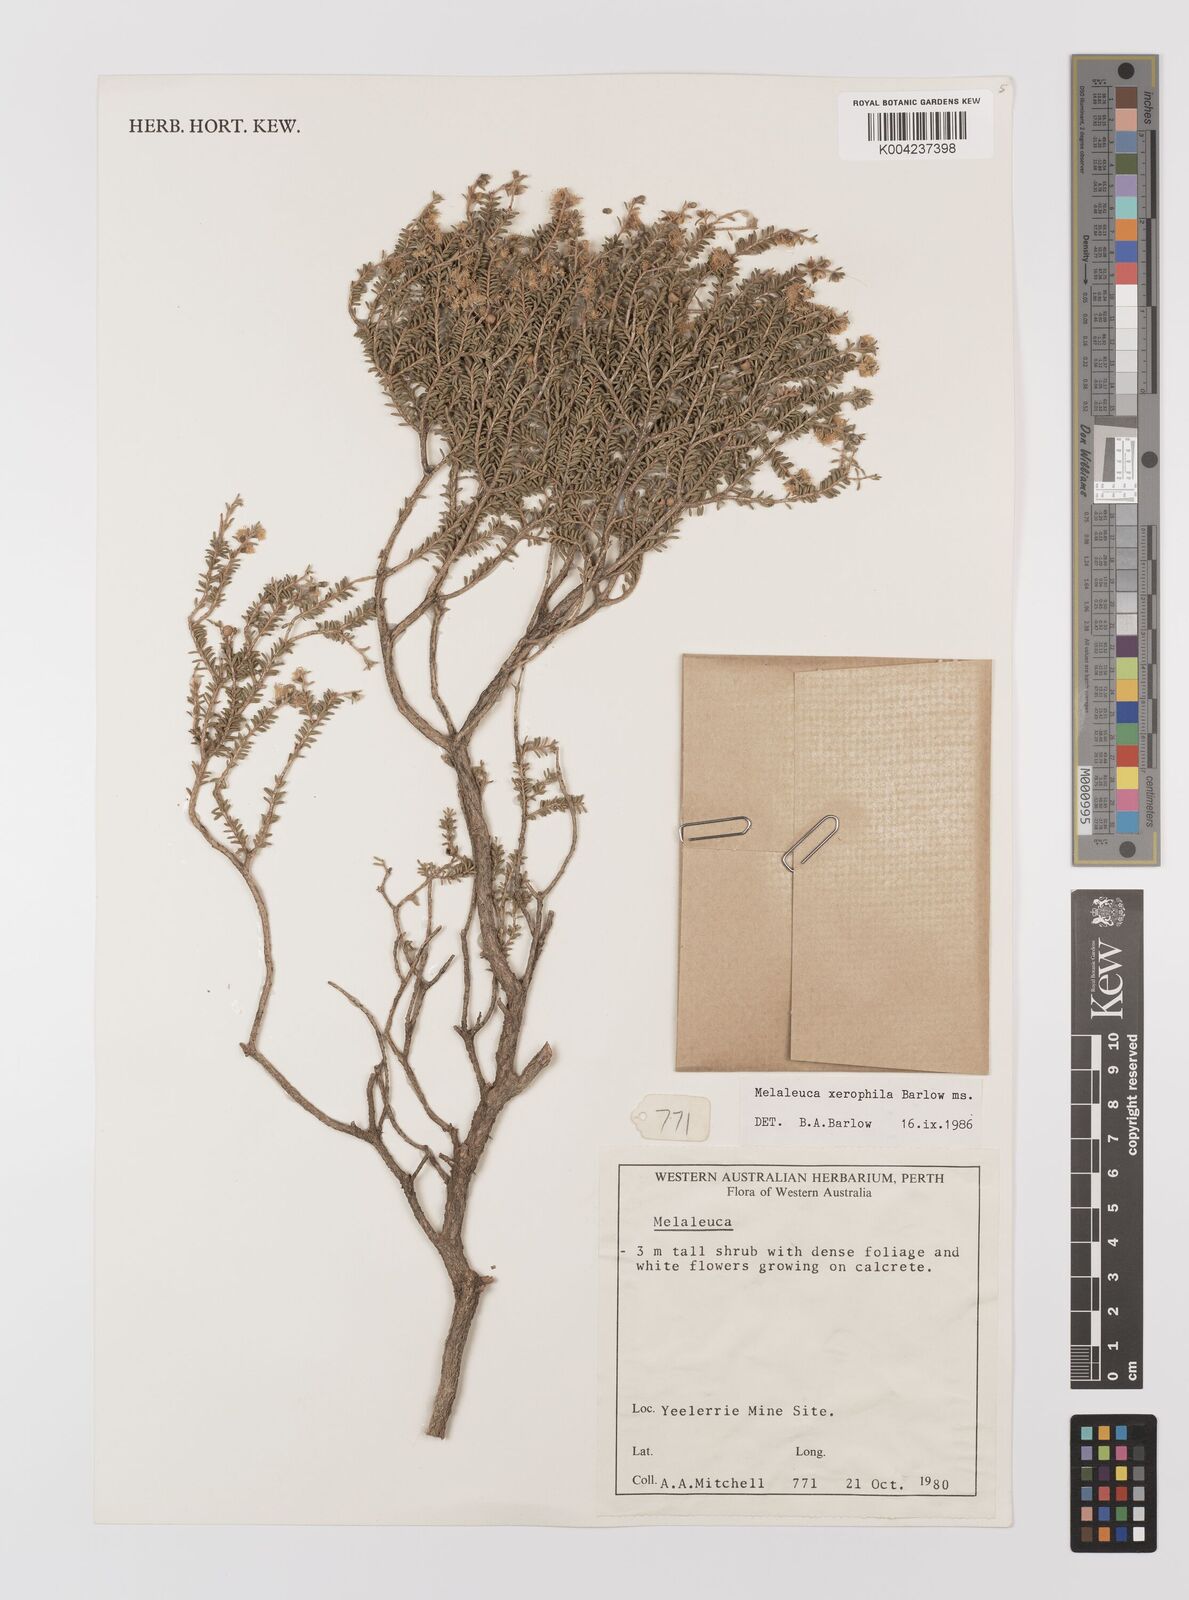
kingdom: Plantae
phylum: Tracheophyta
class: Magnoliopsida
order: Myrtales
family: Myrtaceae
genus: Melaleuca
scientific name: Melaleuca xerophila
